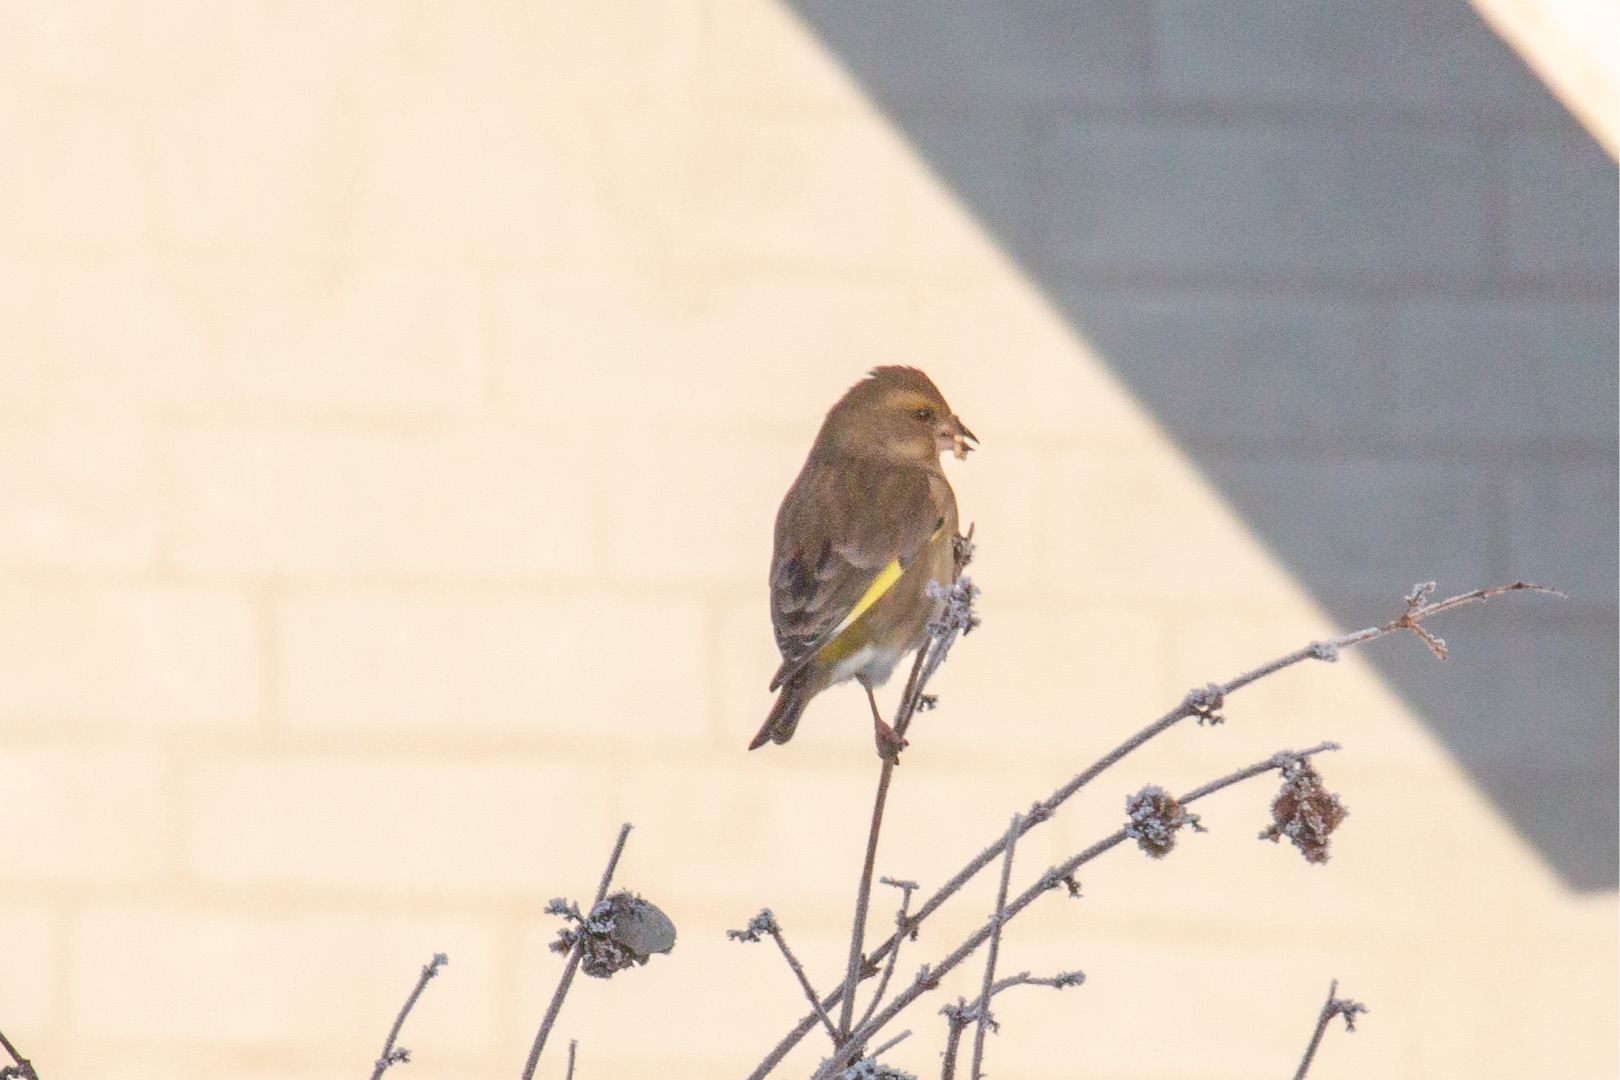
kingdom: Plantae
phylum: Tracheophyta
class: Liliopsida
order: Poales
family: Poaceae
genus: Chloris
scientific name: Chloris chloris
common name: Grønirisk
